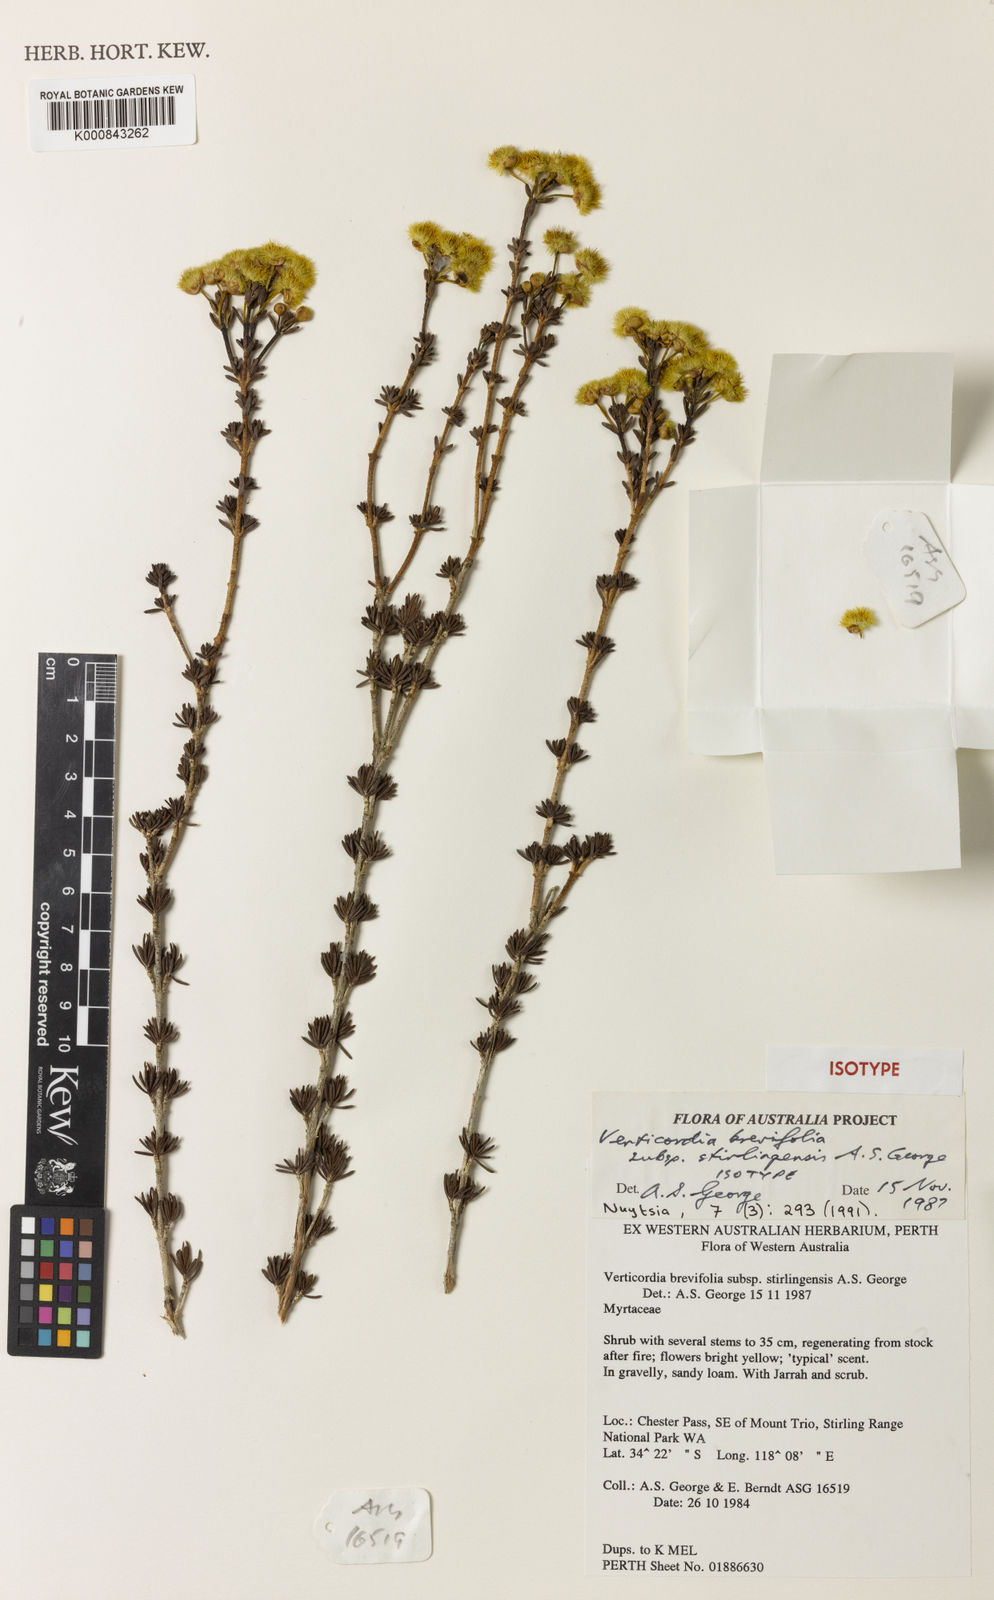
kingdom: Plantae
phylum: Tracheophyta
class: Magnoliopsida
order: Myrtales
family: Myrtaceae
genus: Verticordia
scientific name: Verticordia brevifolia
